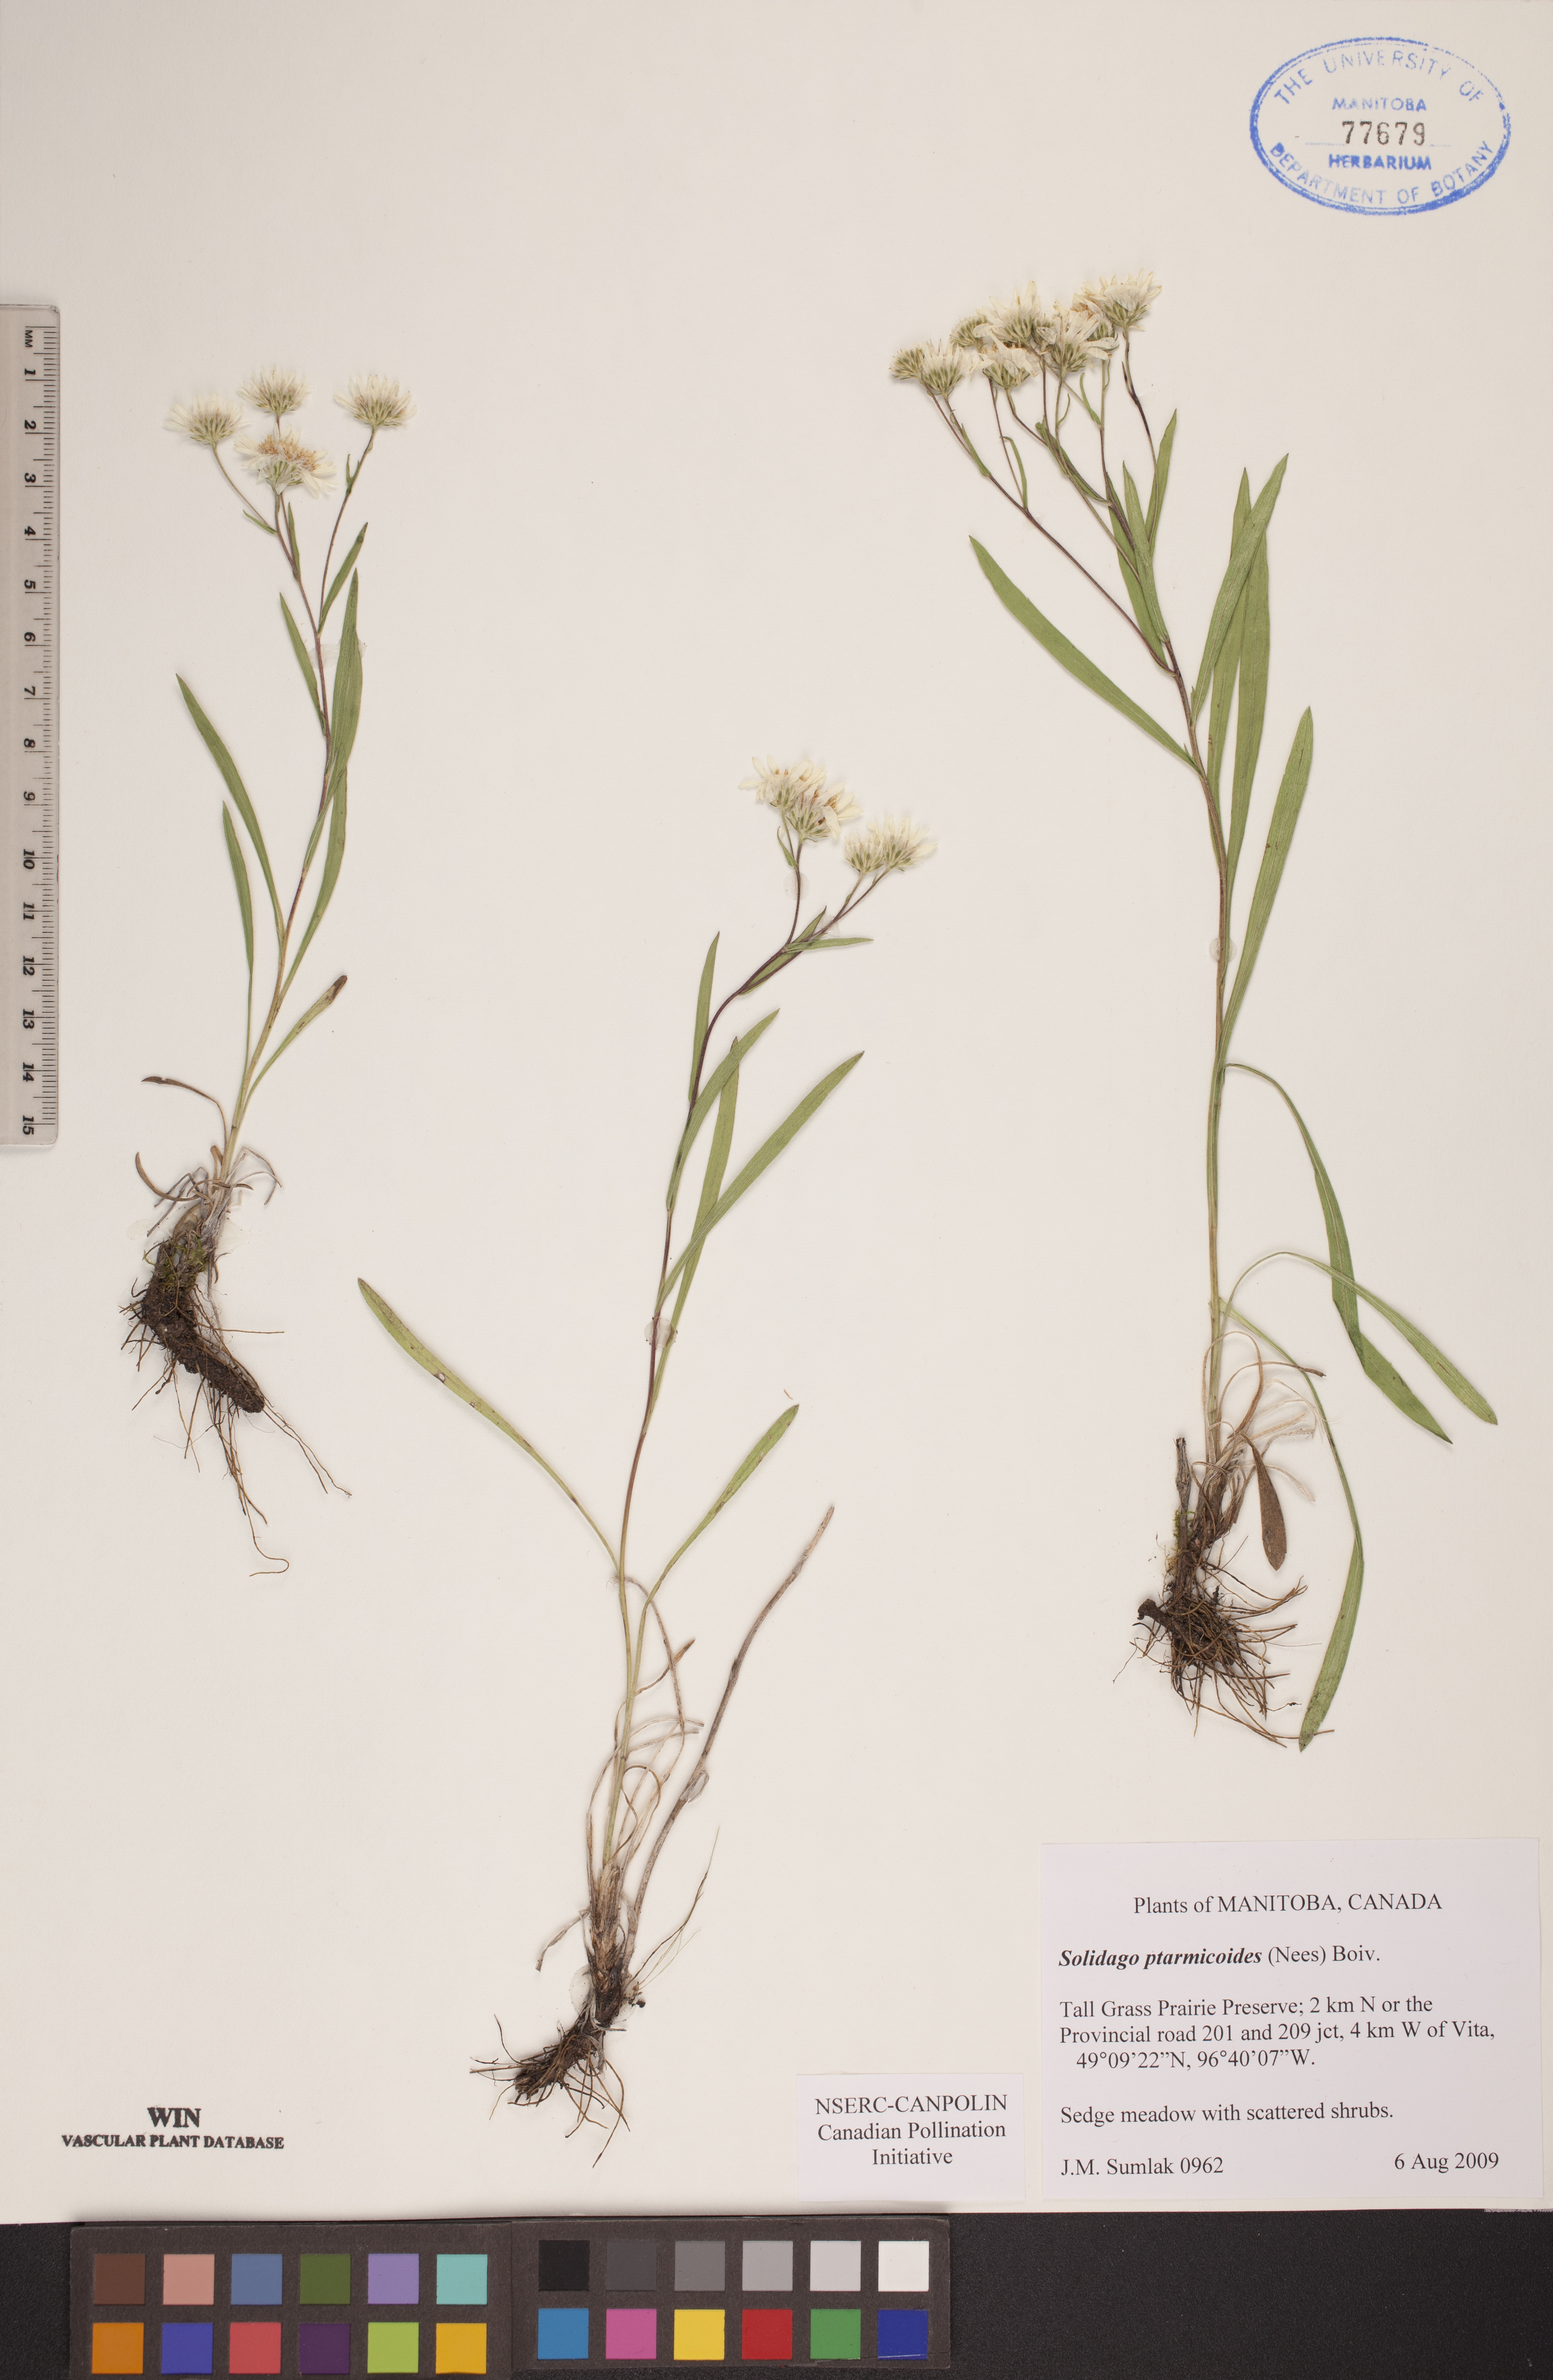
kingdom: Plantae
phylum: Tracheophyta
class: Magnoliopsida
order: Asterales
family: Asteraceae
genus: Solidago
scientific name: Solidago ptarmicoides
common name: White flat-top goldenrod
